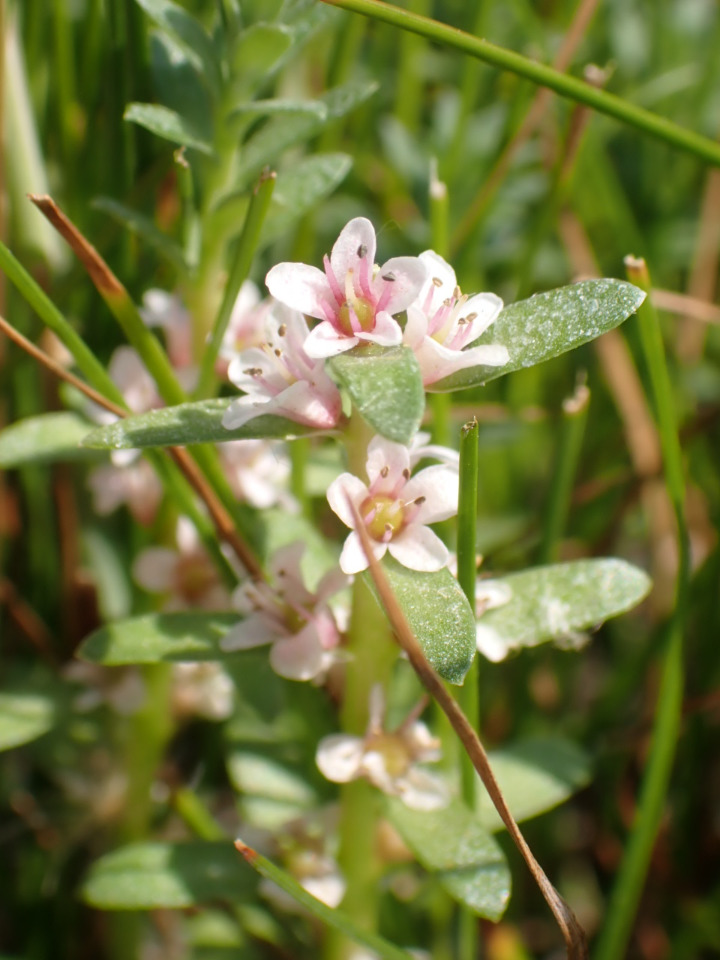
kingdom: Plantae
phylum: Tracheophyta
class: Magnoliopsida
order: Ericales
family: Primulaceae
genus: Lysimachia
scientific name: Lysimachia maritima
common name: Sandkryb
